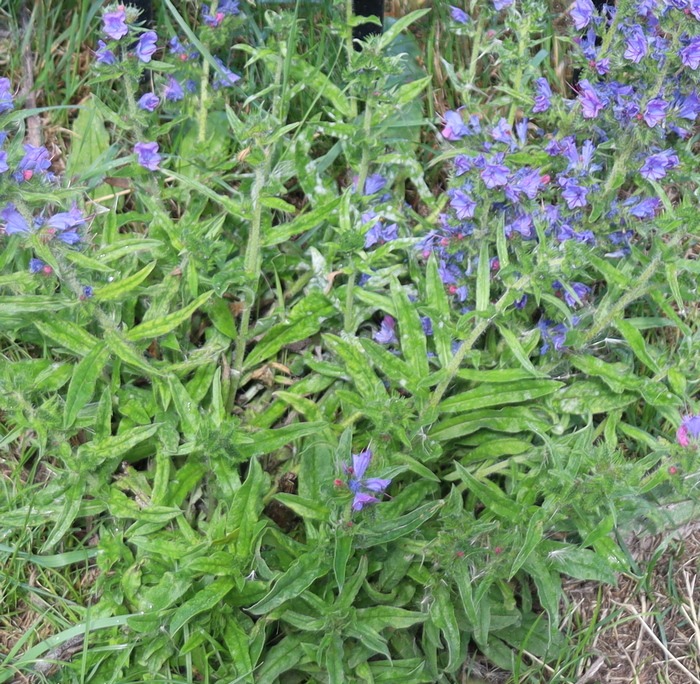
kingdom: Plantae
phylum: Tracheophyta
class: Magnoliopsida
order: Boraginales
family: Boraginaceae
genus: Echium
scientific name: Echium vulgare
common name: Slangehoved
